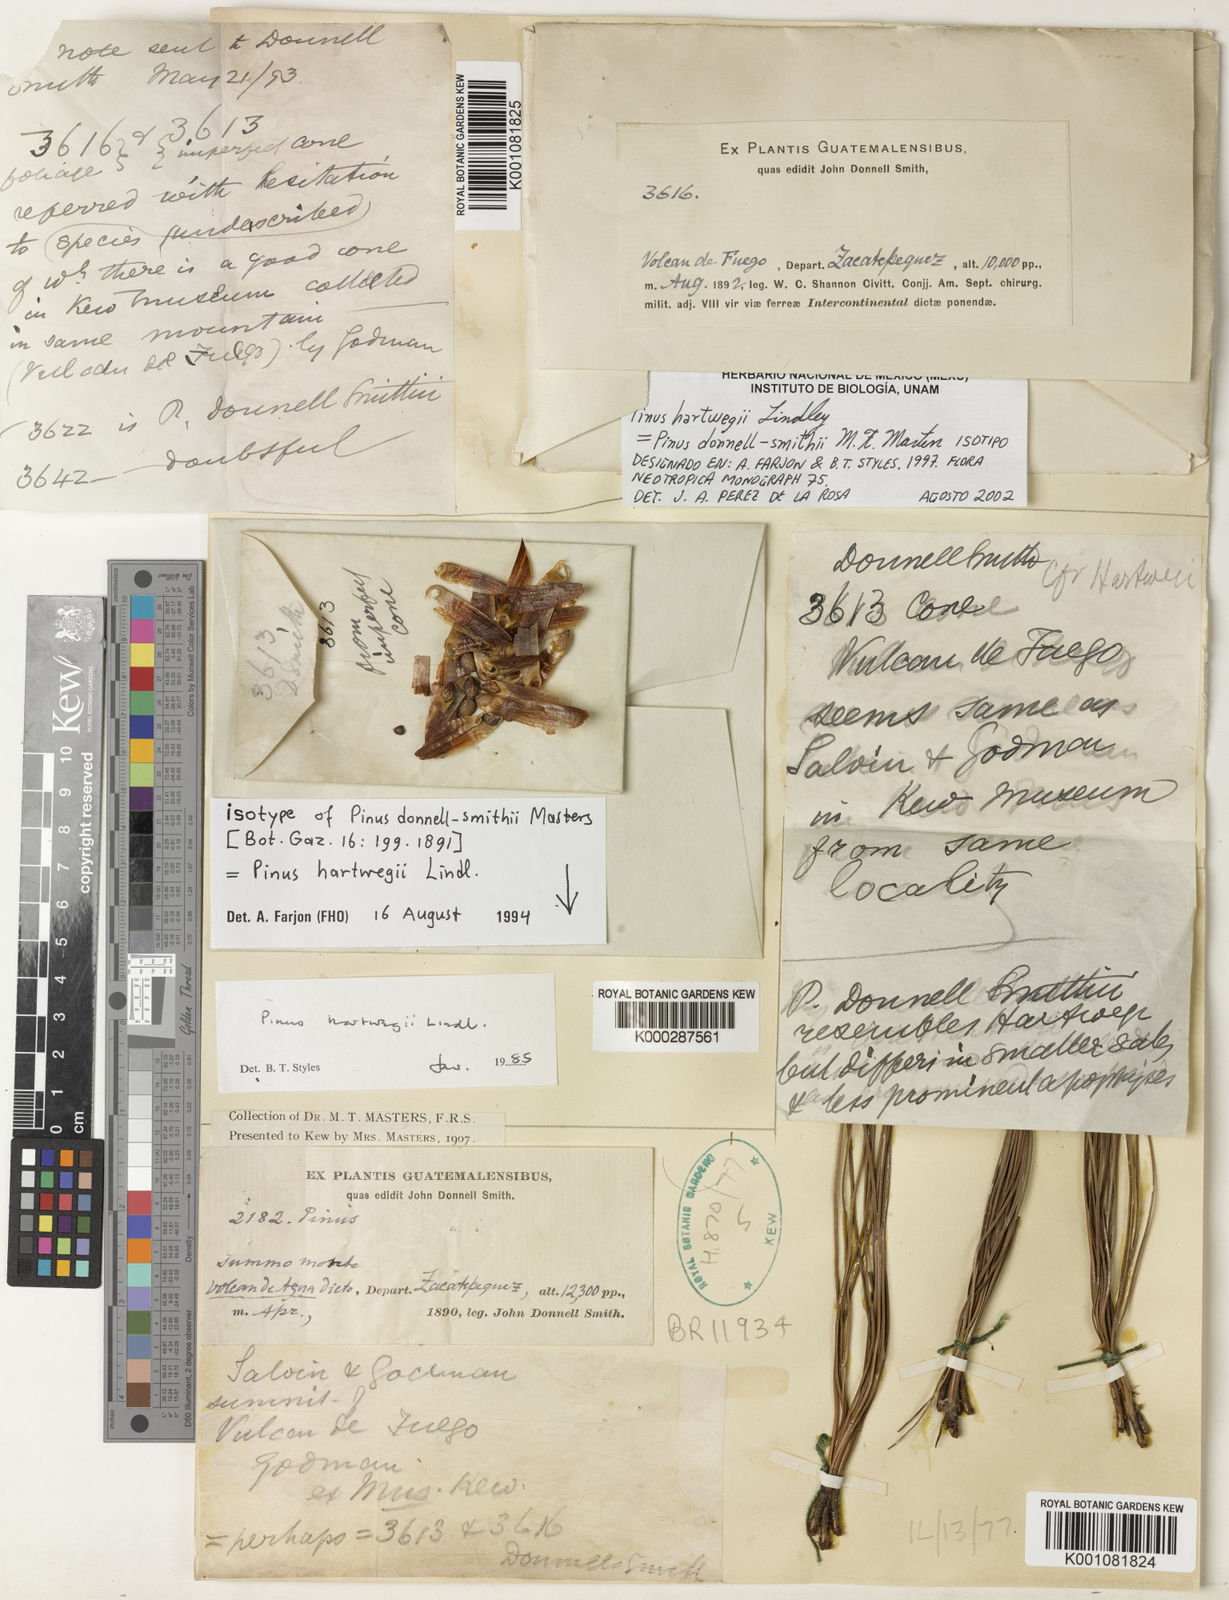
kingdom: Plantae
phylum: Tracheophyta
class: Pinopsida
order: Pinales
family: Pinaceae
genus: Pinus
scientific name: Pinus hartwegii
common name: Hartweg's pine
